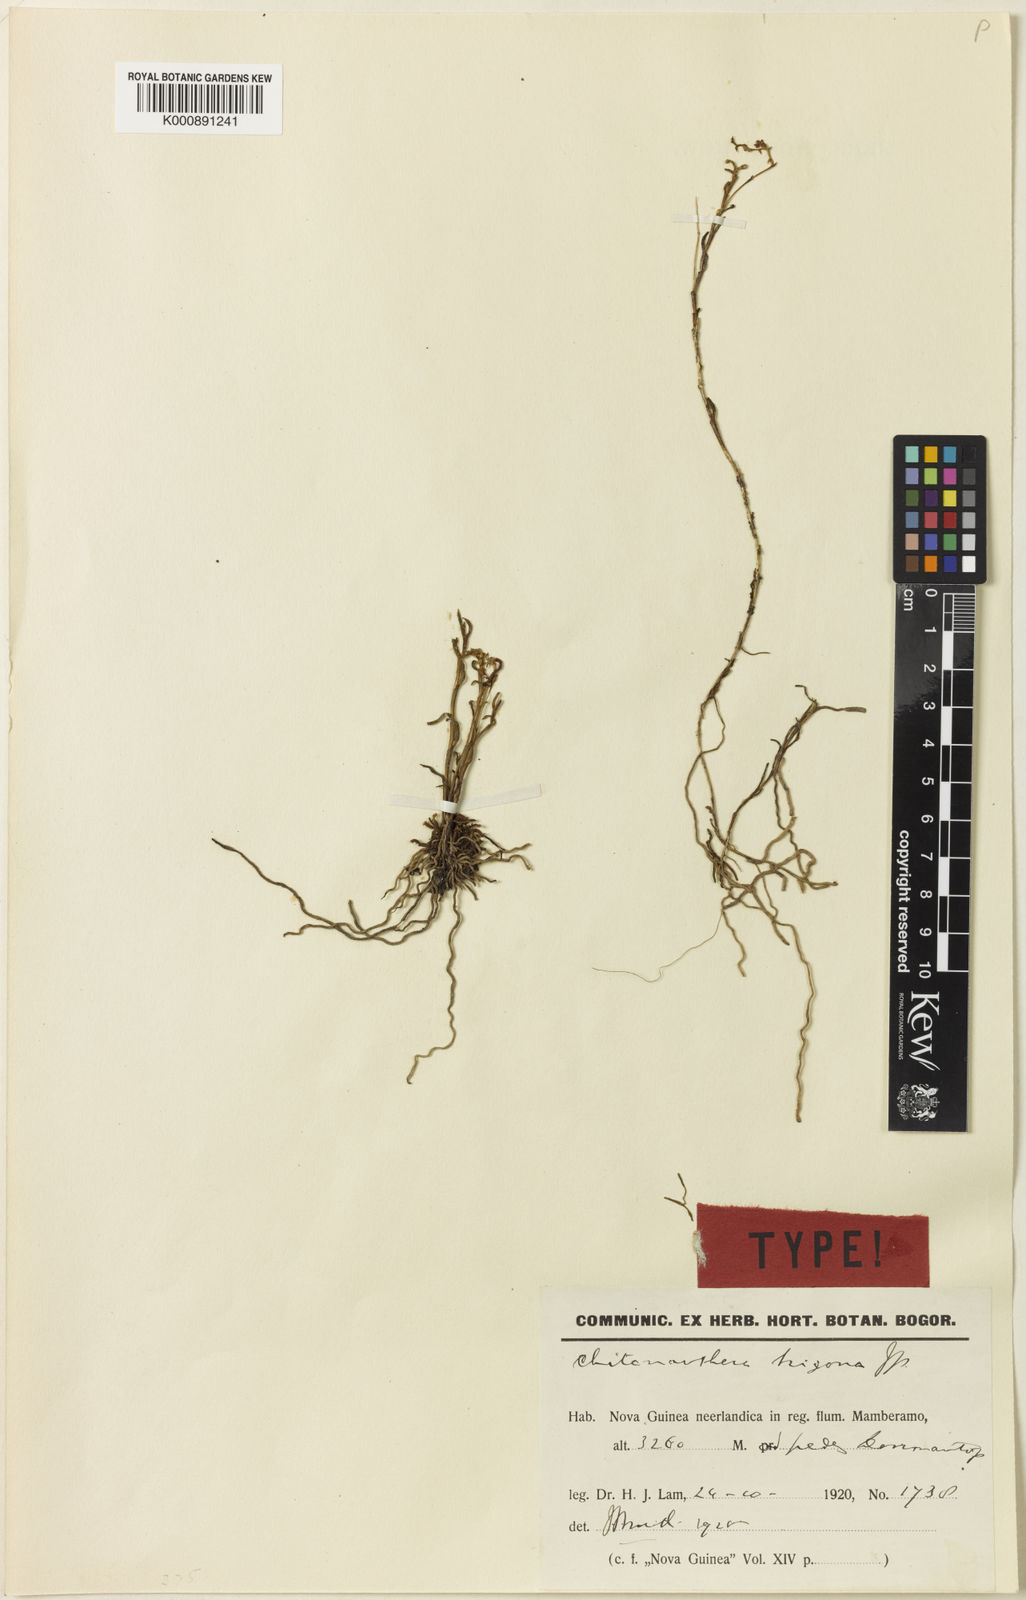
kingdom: Plantae
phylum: Tracheophyta
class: Liliopsida
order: Asparagales
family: Orchidaceae
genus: Octarrhena
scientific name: Octarrhena trigona
